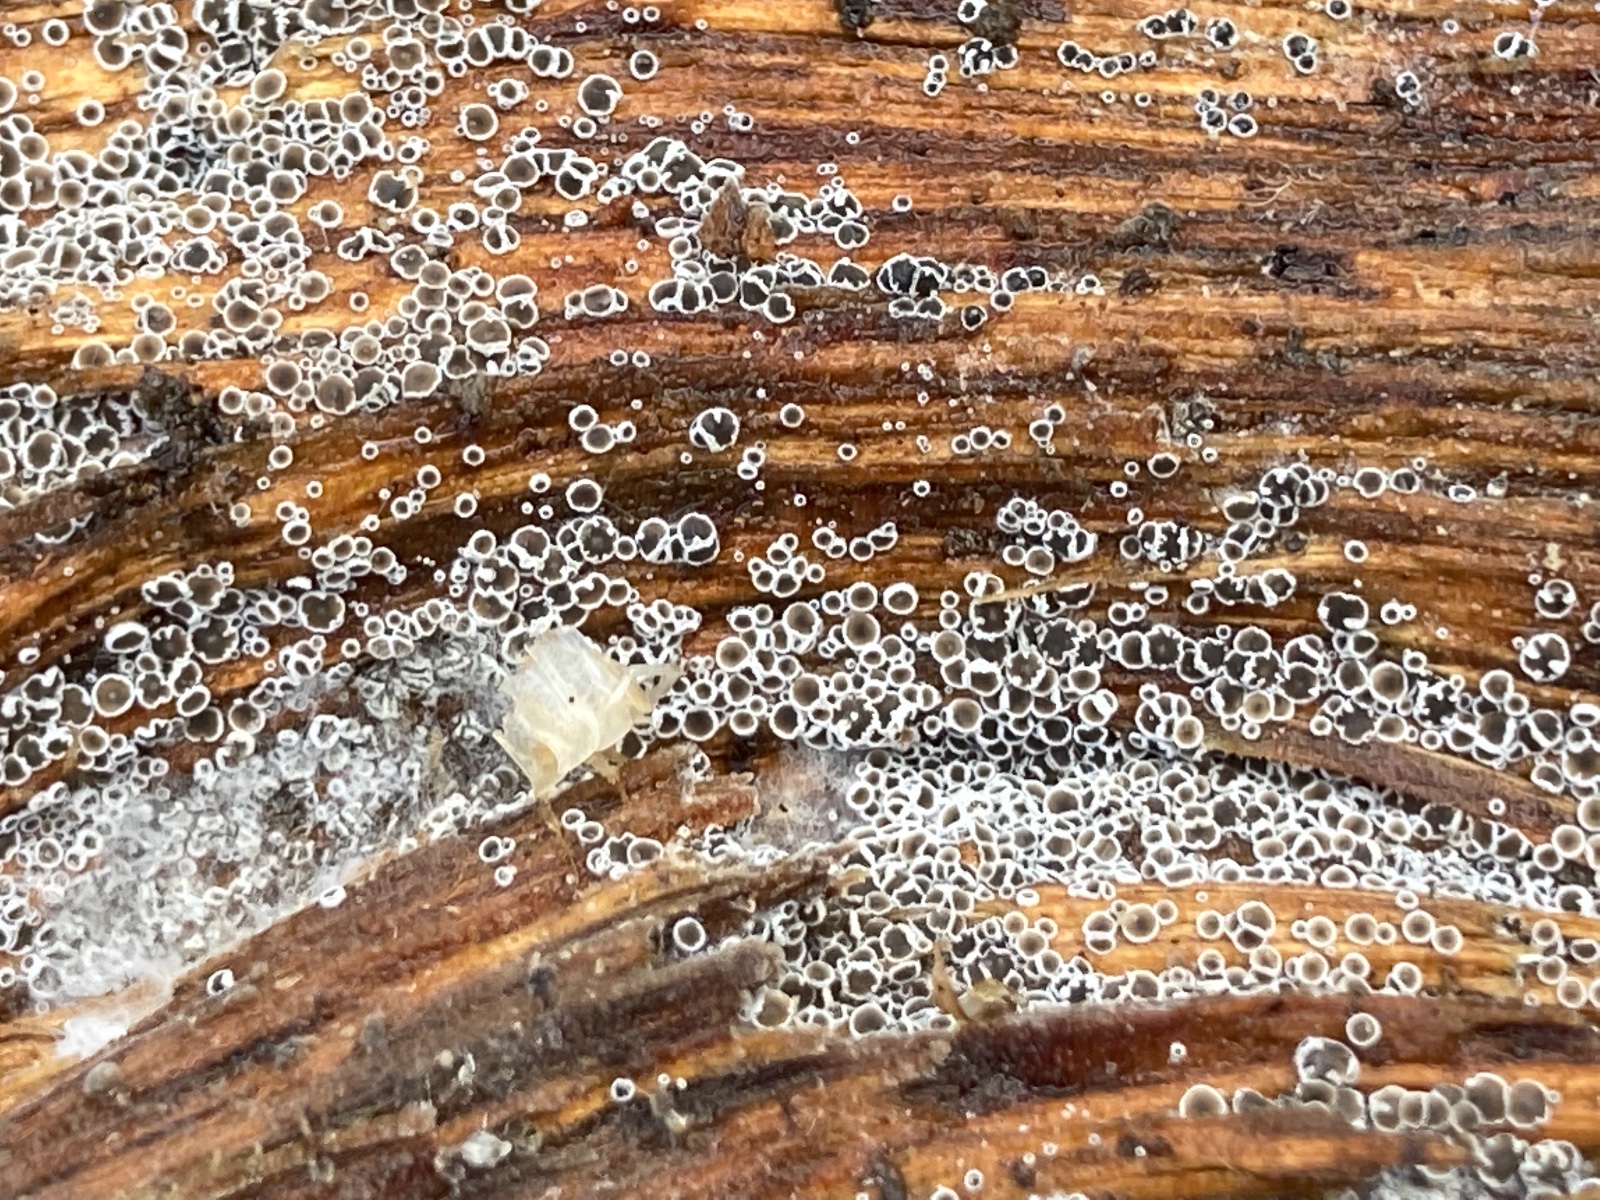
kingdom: Fungi
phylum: Ascomycota
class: Leotiomycetes
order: Helotiales
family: Arachnopezizaceae
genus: Eriopezia
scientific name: Eriopezia caesia
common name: ege-spindskive
